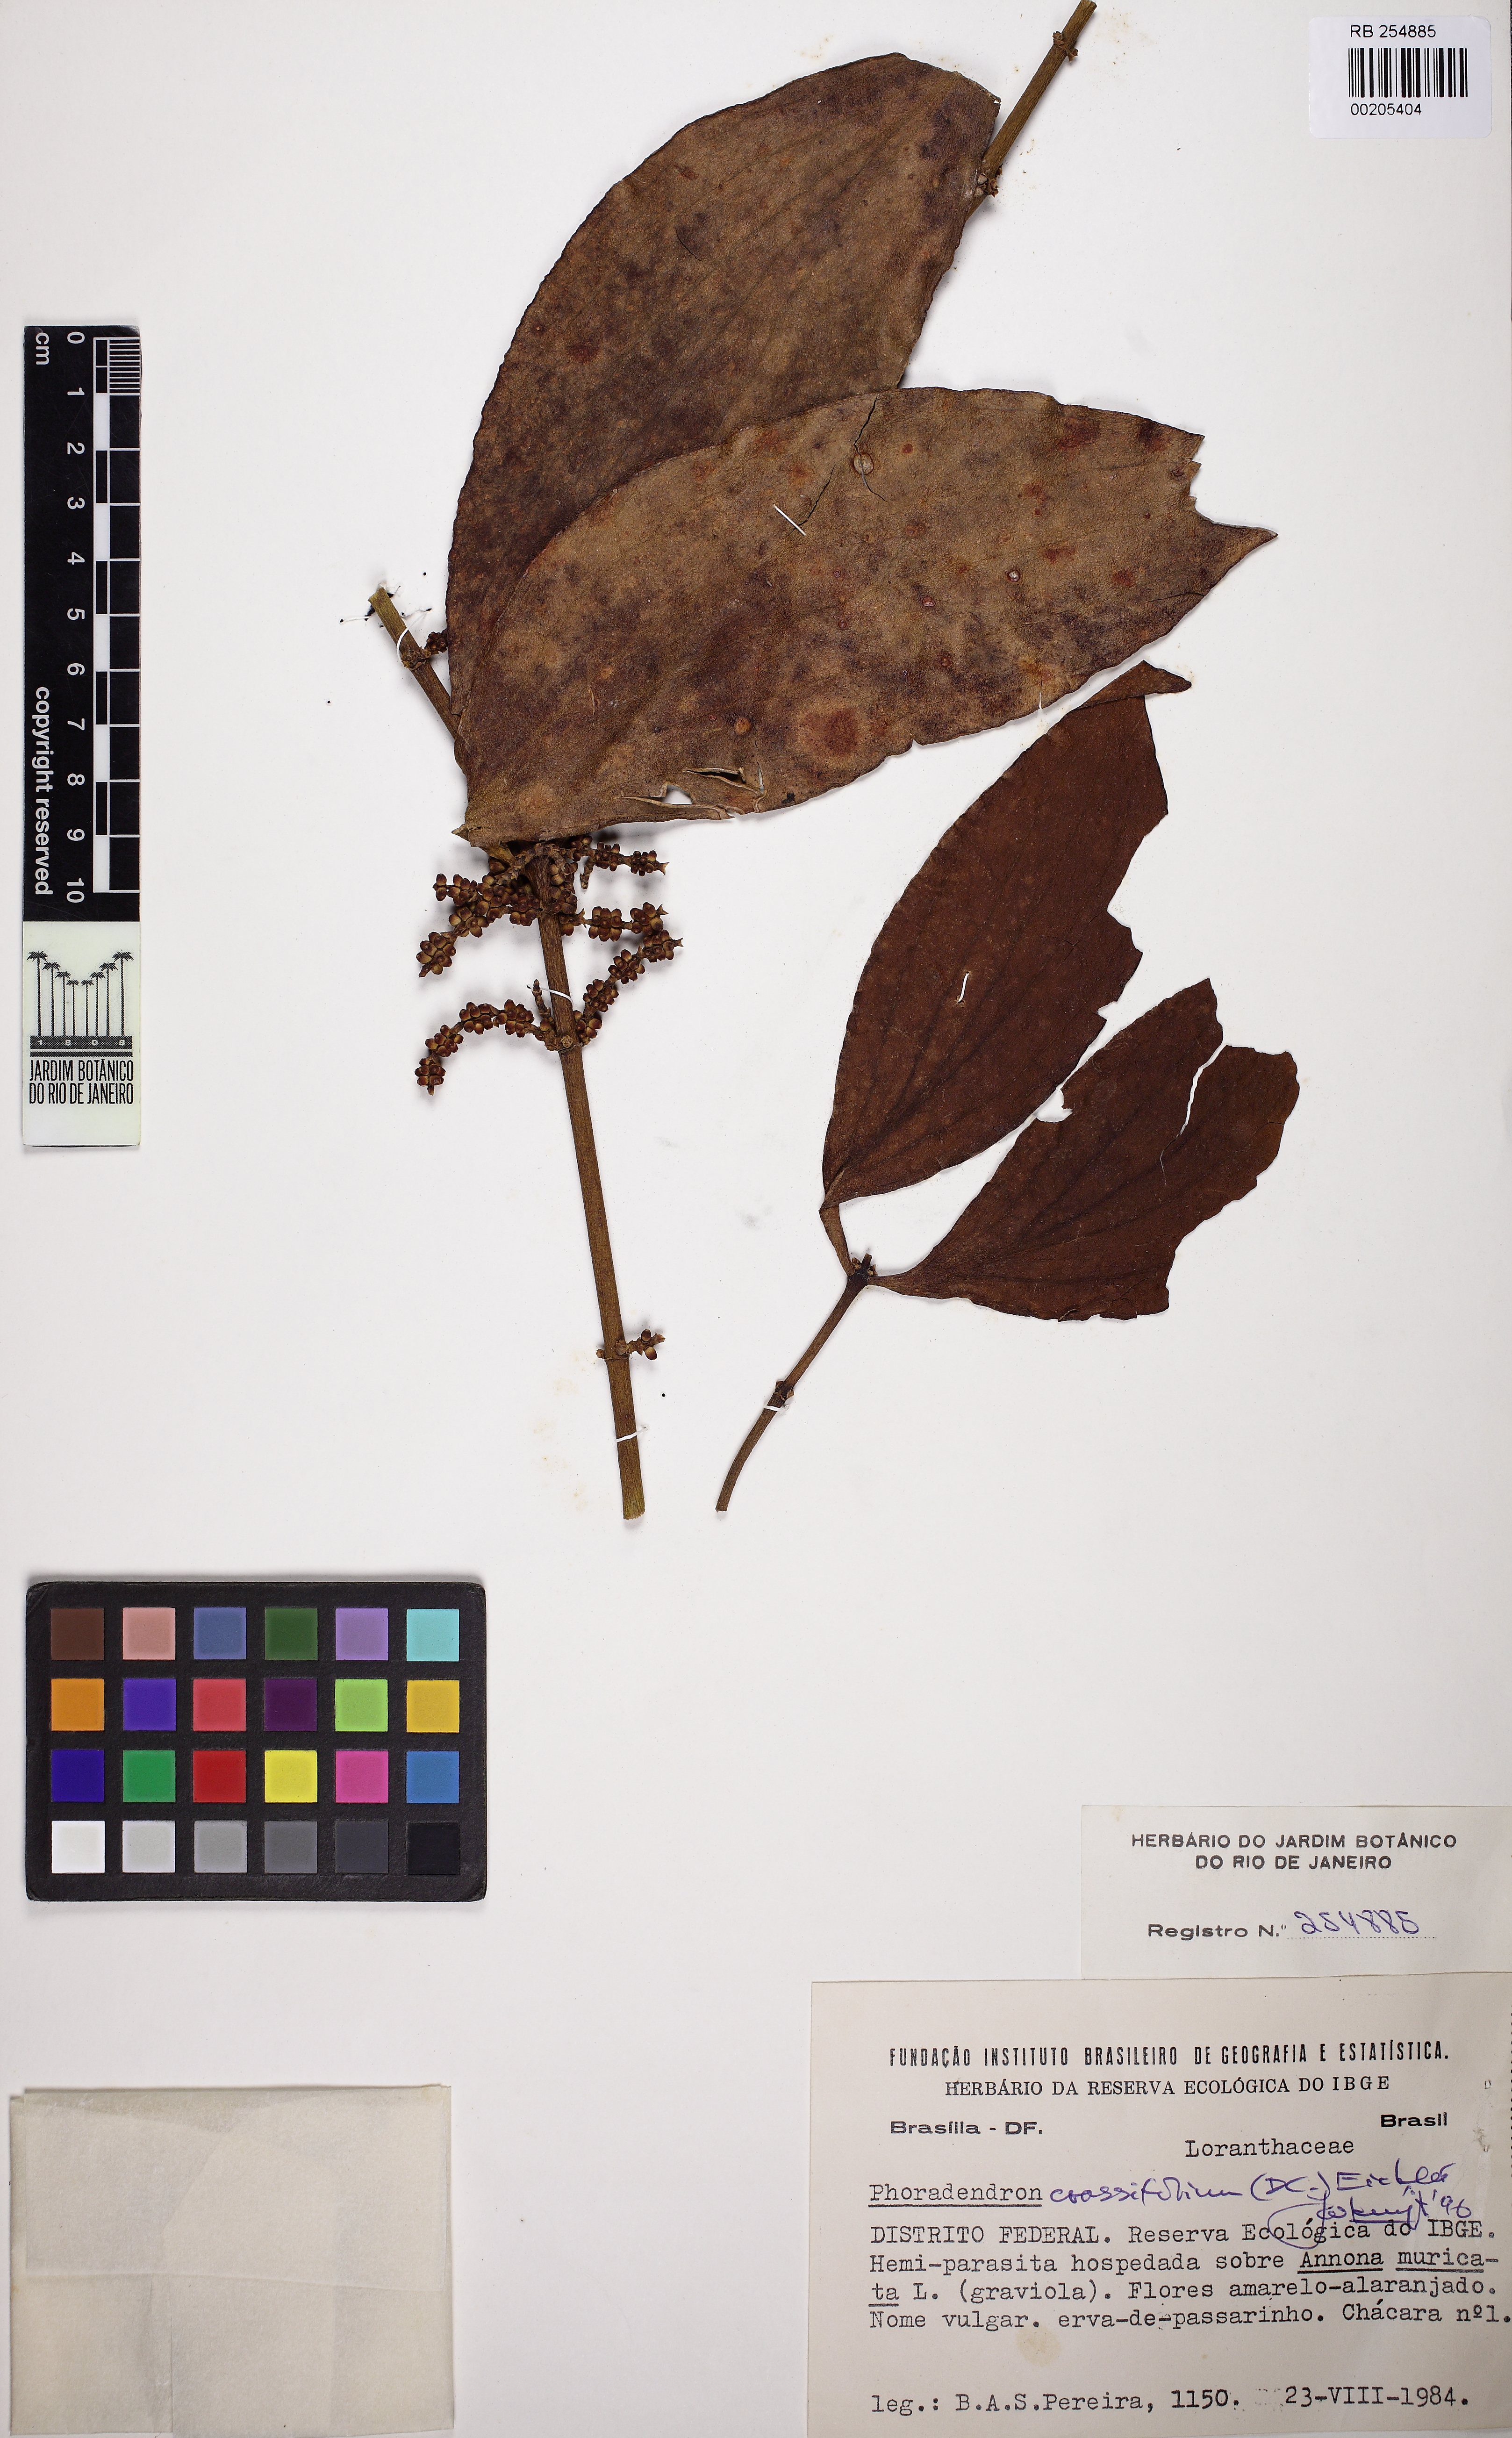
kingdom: Plantae
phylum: Tracheophyta
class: Magnoliopsida
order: Santalales
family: Viscaceae
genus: Phoradendron
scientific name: Phoradendron crassifolium
